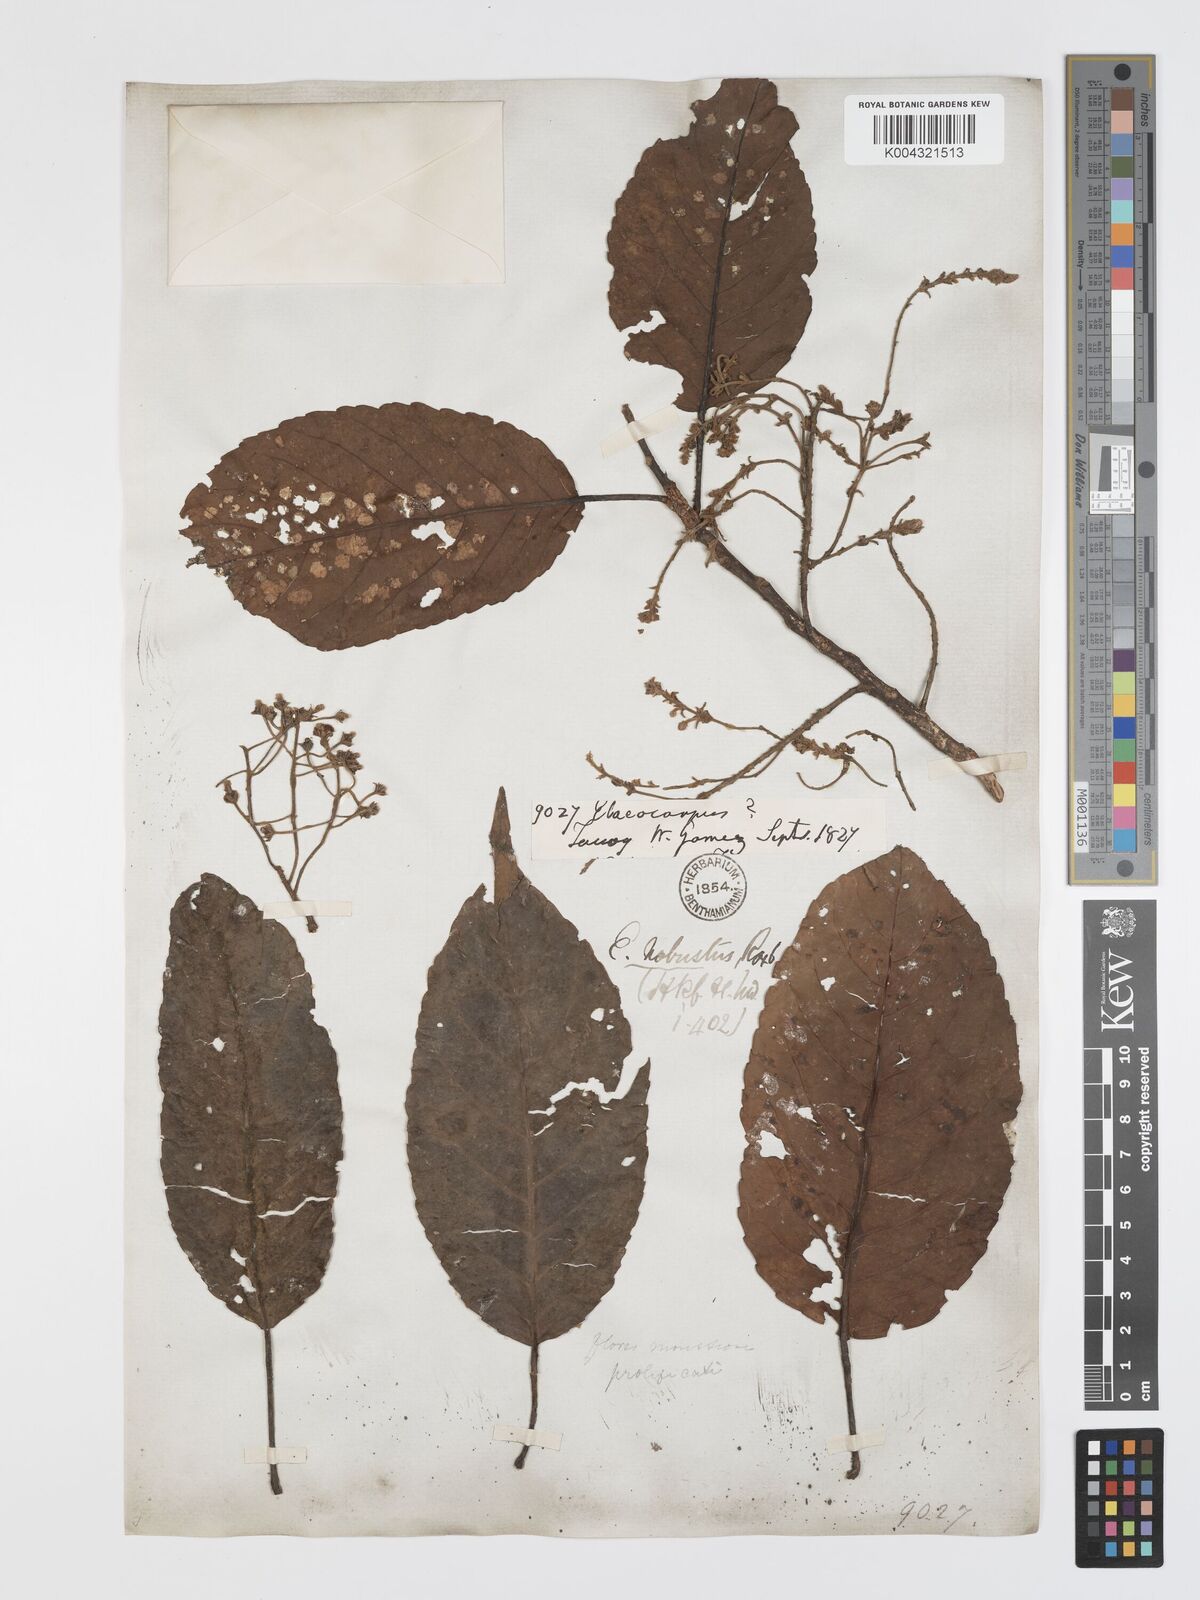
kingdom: Plantae
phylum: Tracheophyta
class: Magnoliopsida
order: Oxalidales
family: Elaeocarpaceae
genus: Elaeocarpus
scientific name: Elaeocarpus robustus
